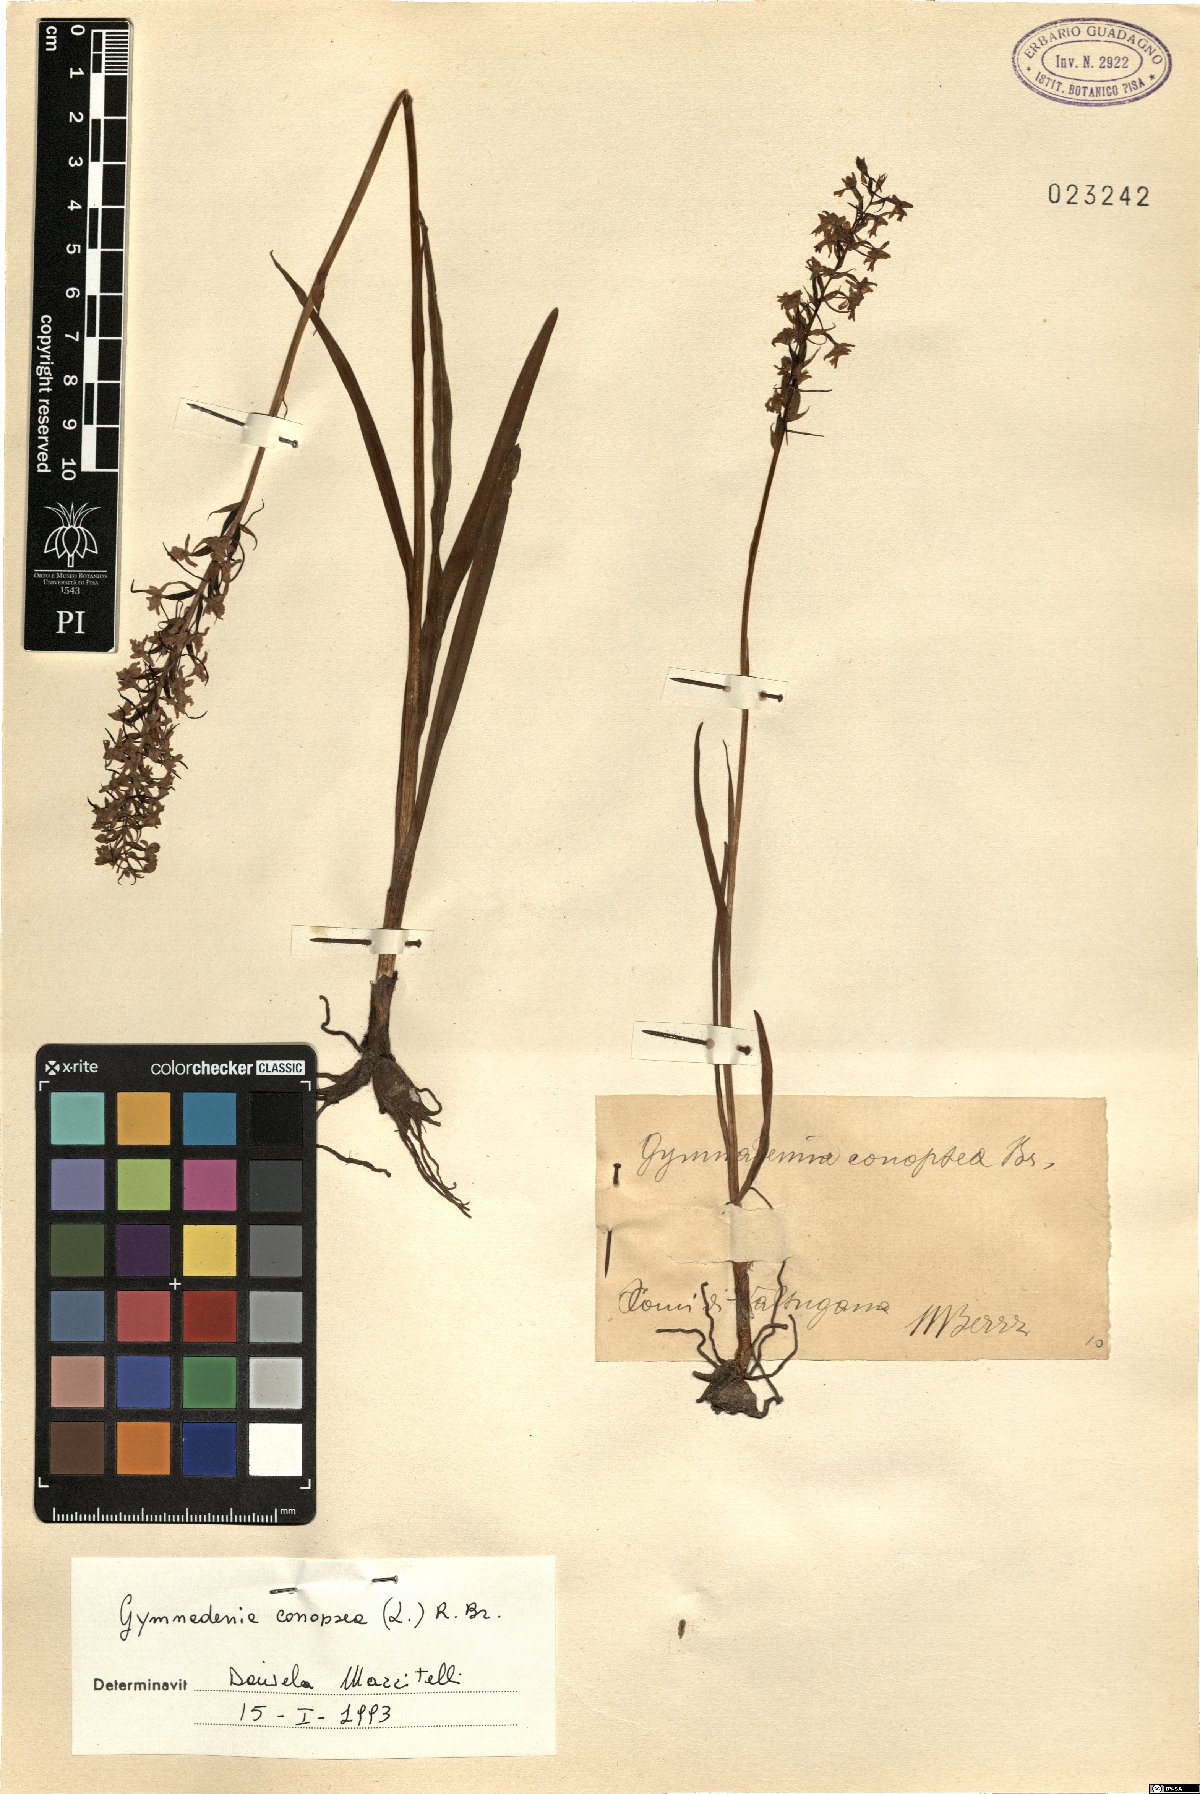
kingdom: Plantae
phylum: Tracheophyta
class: Liliopsida
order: Asparagales
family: Orchidaceae
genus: Gymnadenia
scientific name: Gymnadenia conopsea
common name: Fragrant orchid
